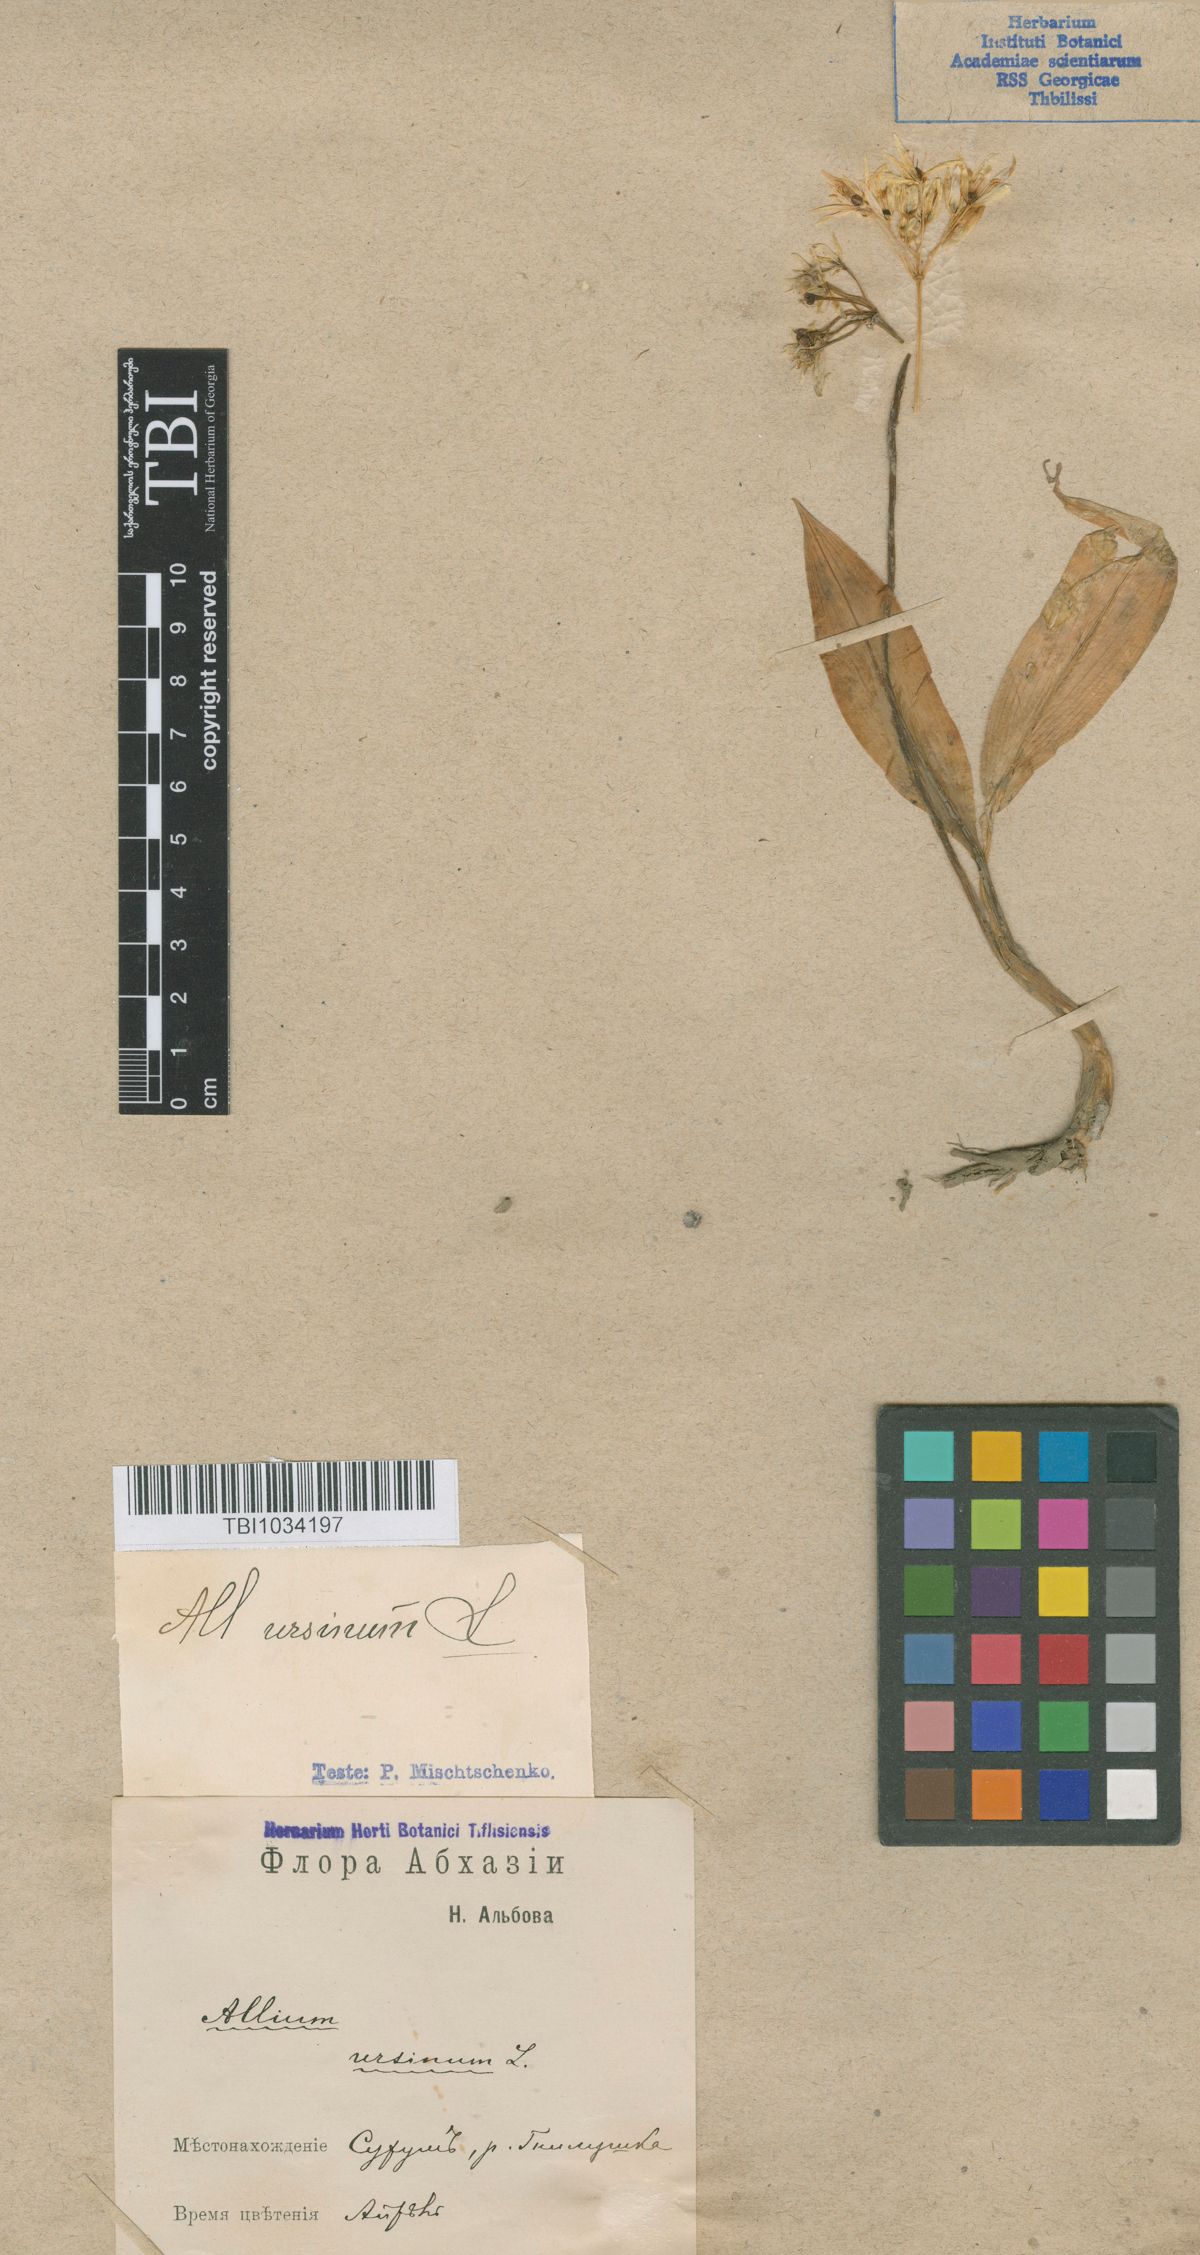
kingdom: Plantae
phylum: Tracheophyta
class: Liliopsida
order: Asparagales
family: Amaryllidaceae
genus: Allium
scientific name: Allium ursinum
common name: Ramsons
